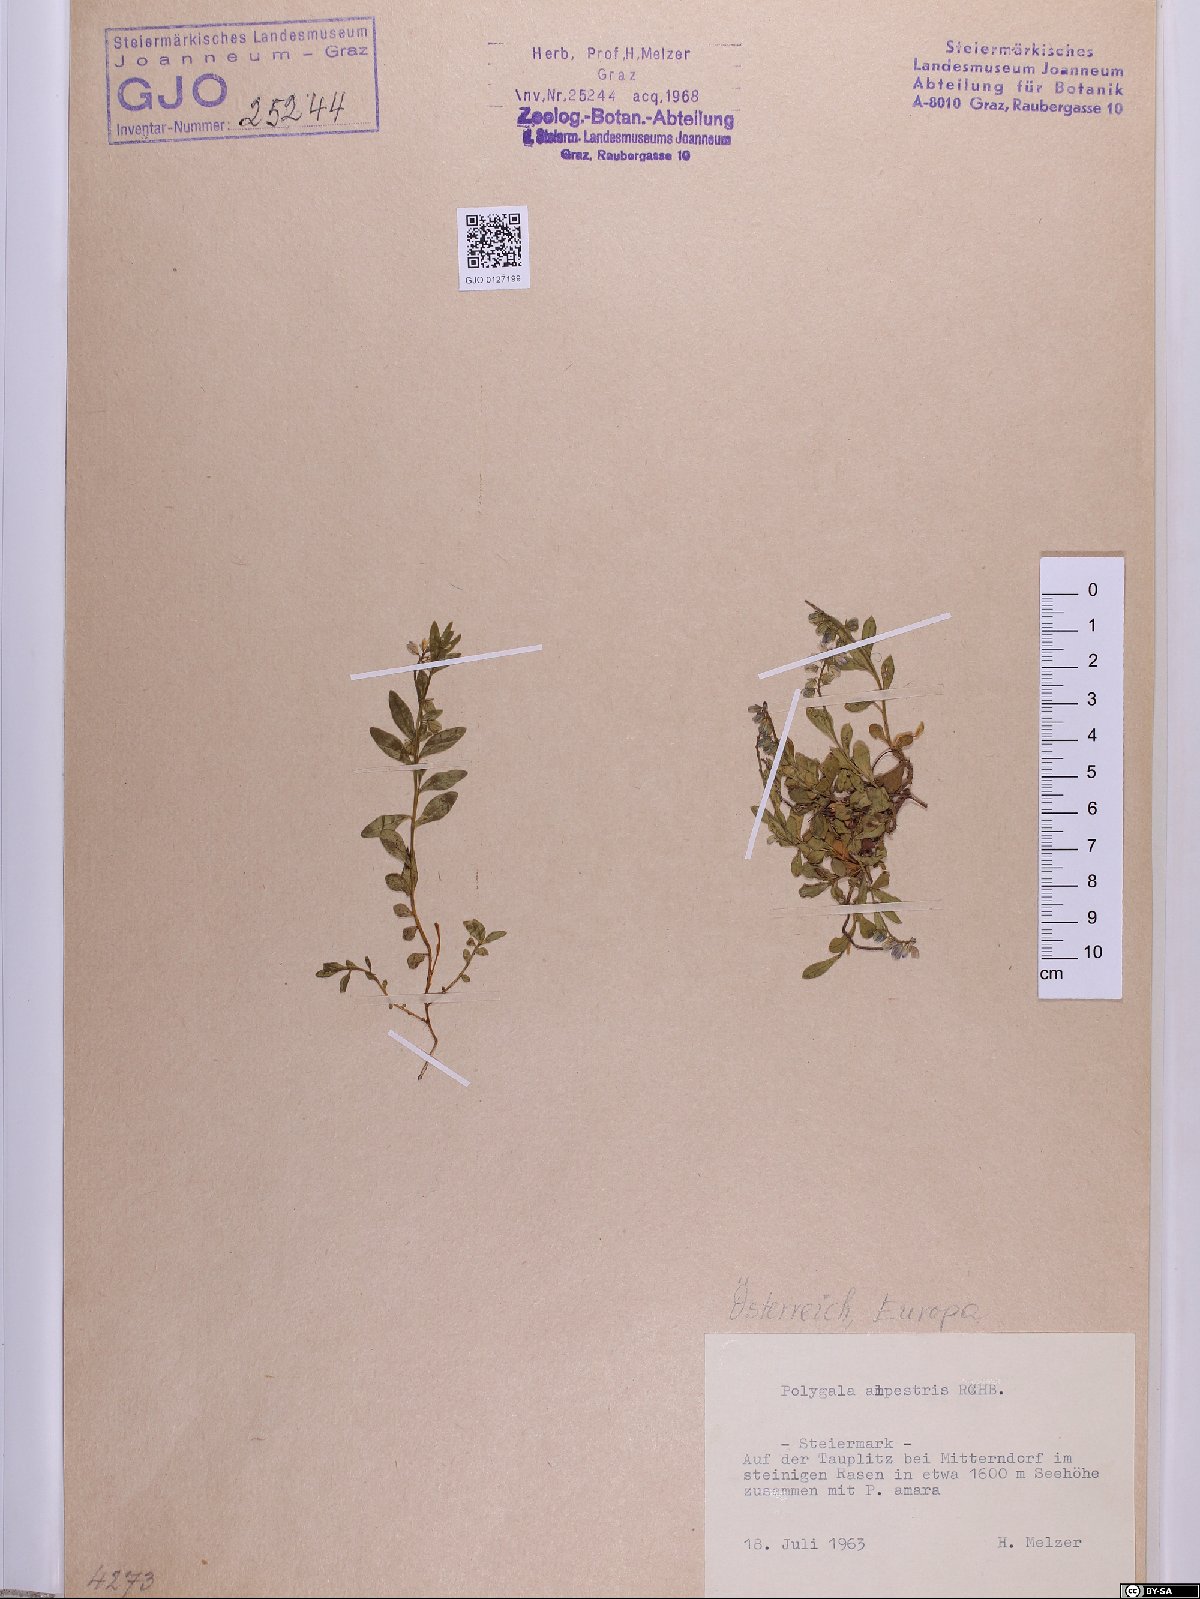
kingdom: Plantae
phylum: Tracheophyta
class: Magnoliopsida
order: Fabales
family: Polygalaceae
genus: Polygala
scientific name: Polygala alpestris
